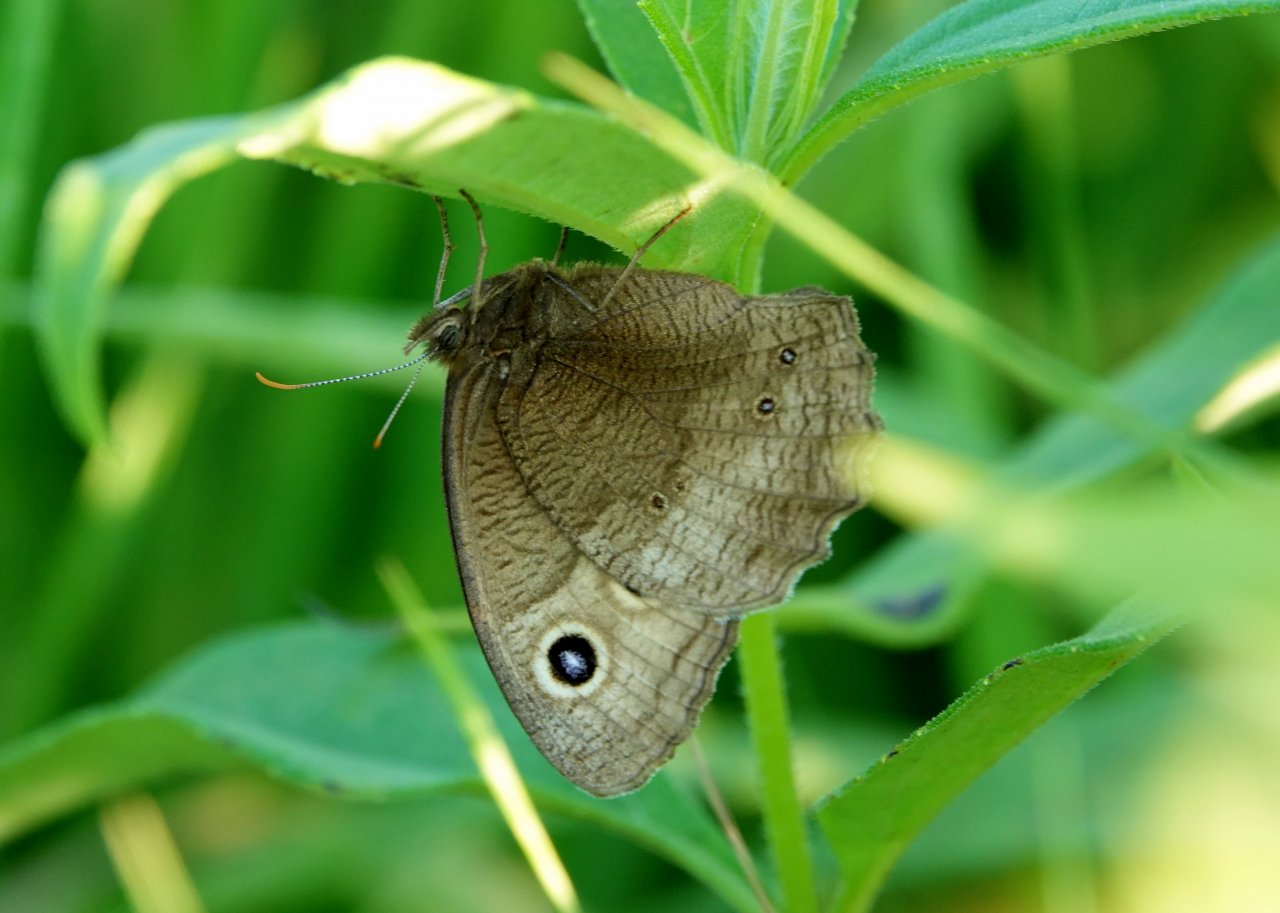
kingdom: Animalia
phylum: Arthropoda
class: Insecta
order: Lepidoptera
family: Nymphalidae
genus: Cercyonis
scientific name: Cercyonis
